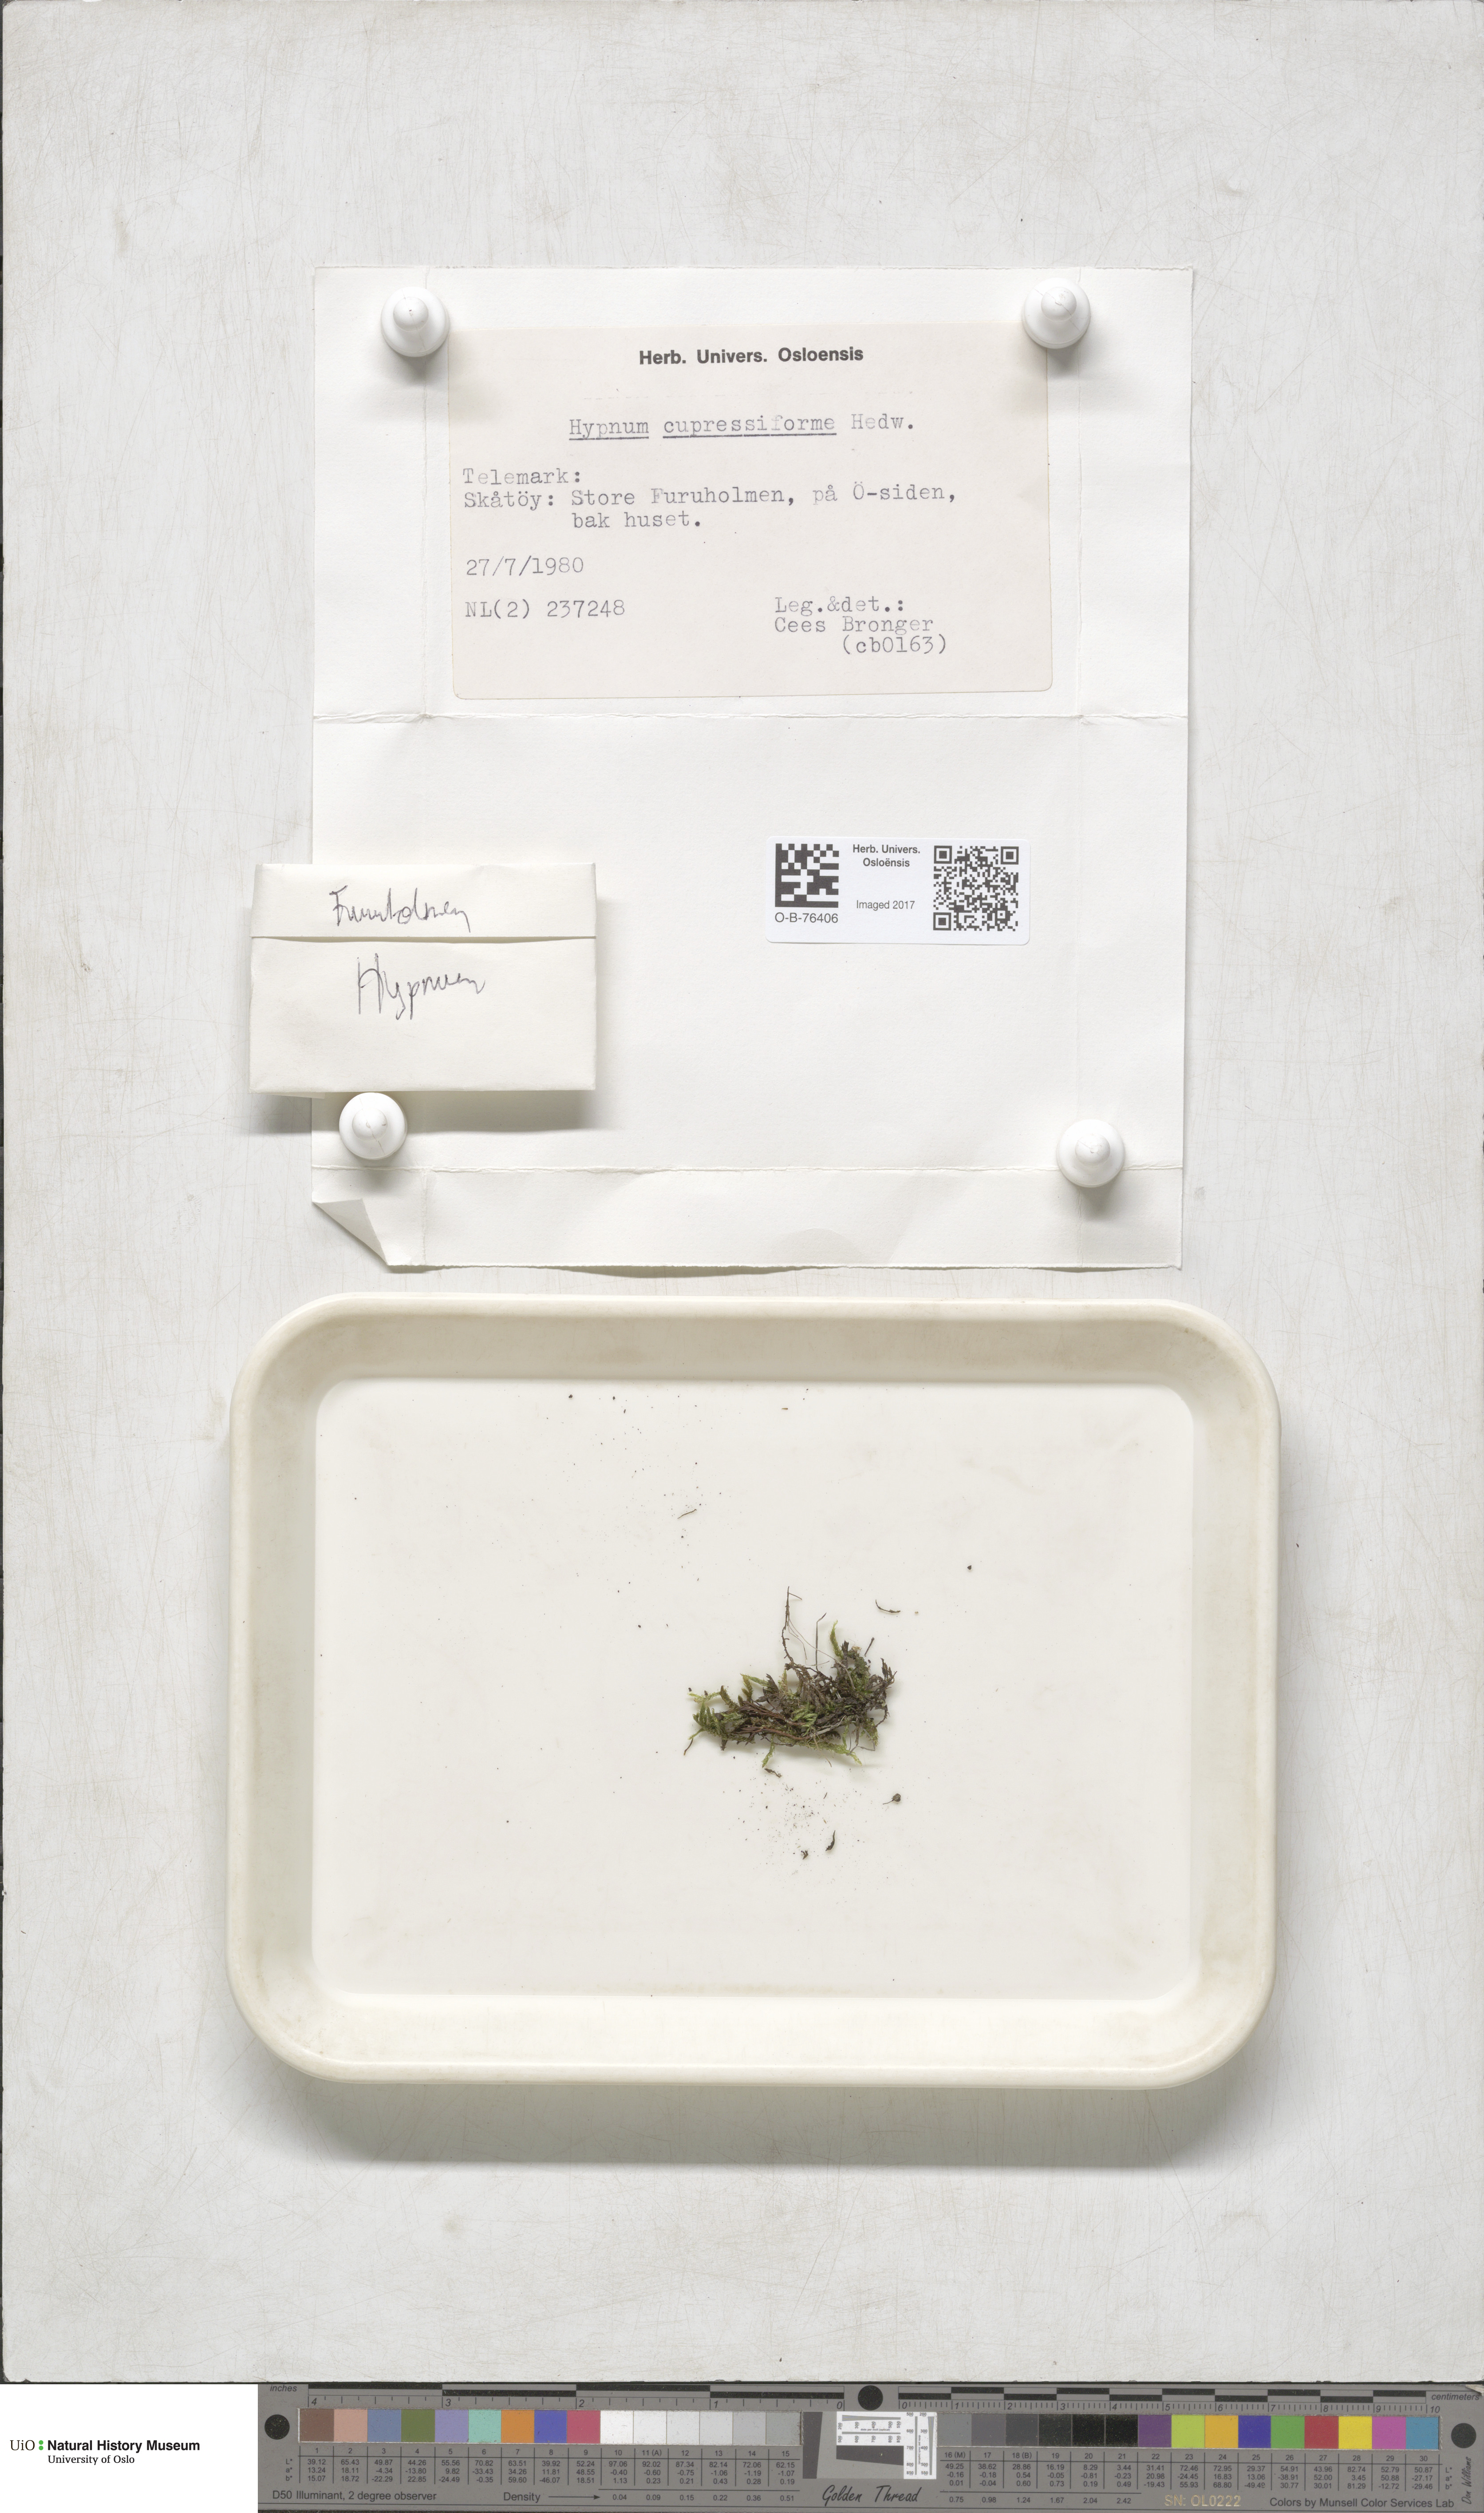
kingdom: Plantae
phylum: Bryophyta
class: Bryopsida
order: Hypnales
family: Hypnaceae
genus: Hypnum
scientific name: Hypnum cupressiforme
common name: Cypress-leaved plait-moss
